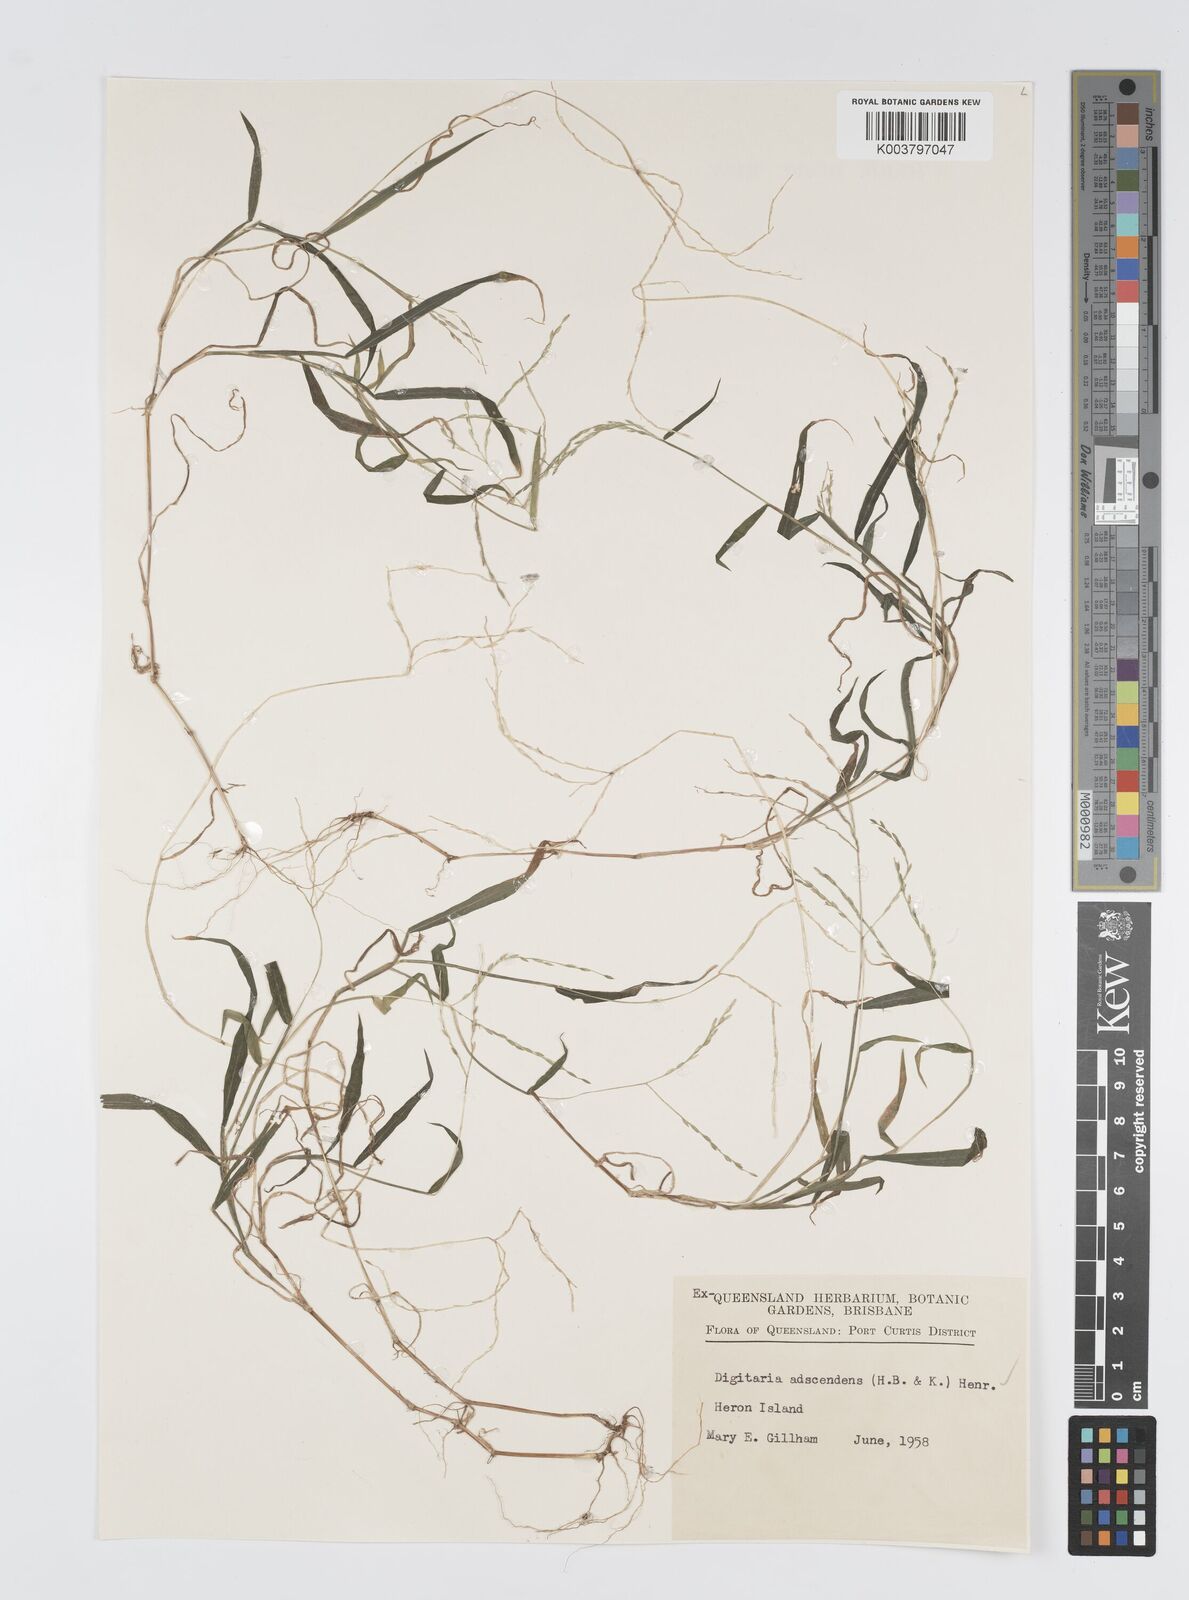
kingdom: Plantae
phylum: Tracheophyta
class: Liliopsida
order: Poales
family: Poaceae
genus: Digitaria
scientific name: Digitaria ciliaris
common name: Tropical finger-grass
